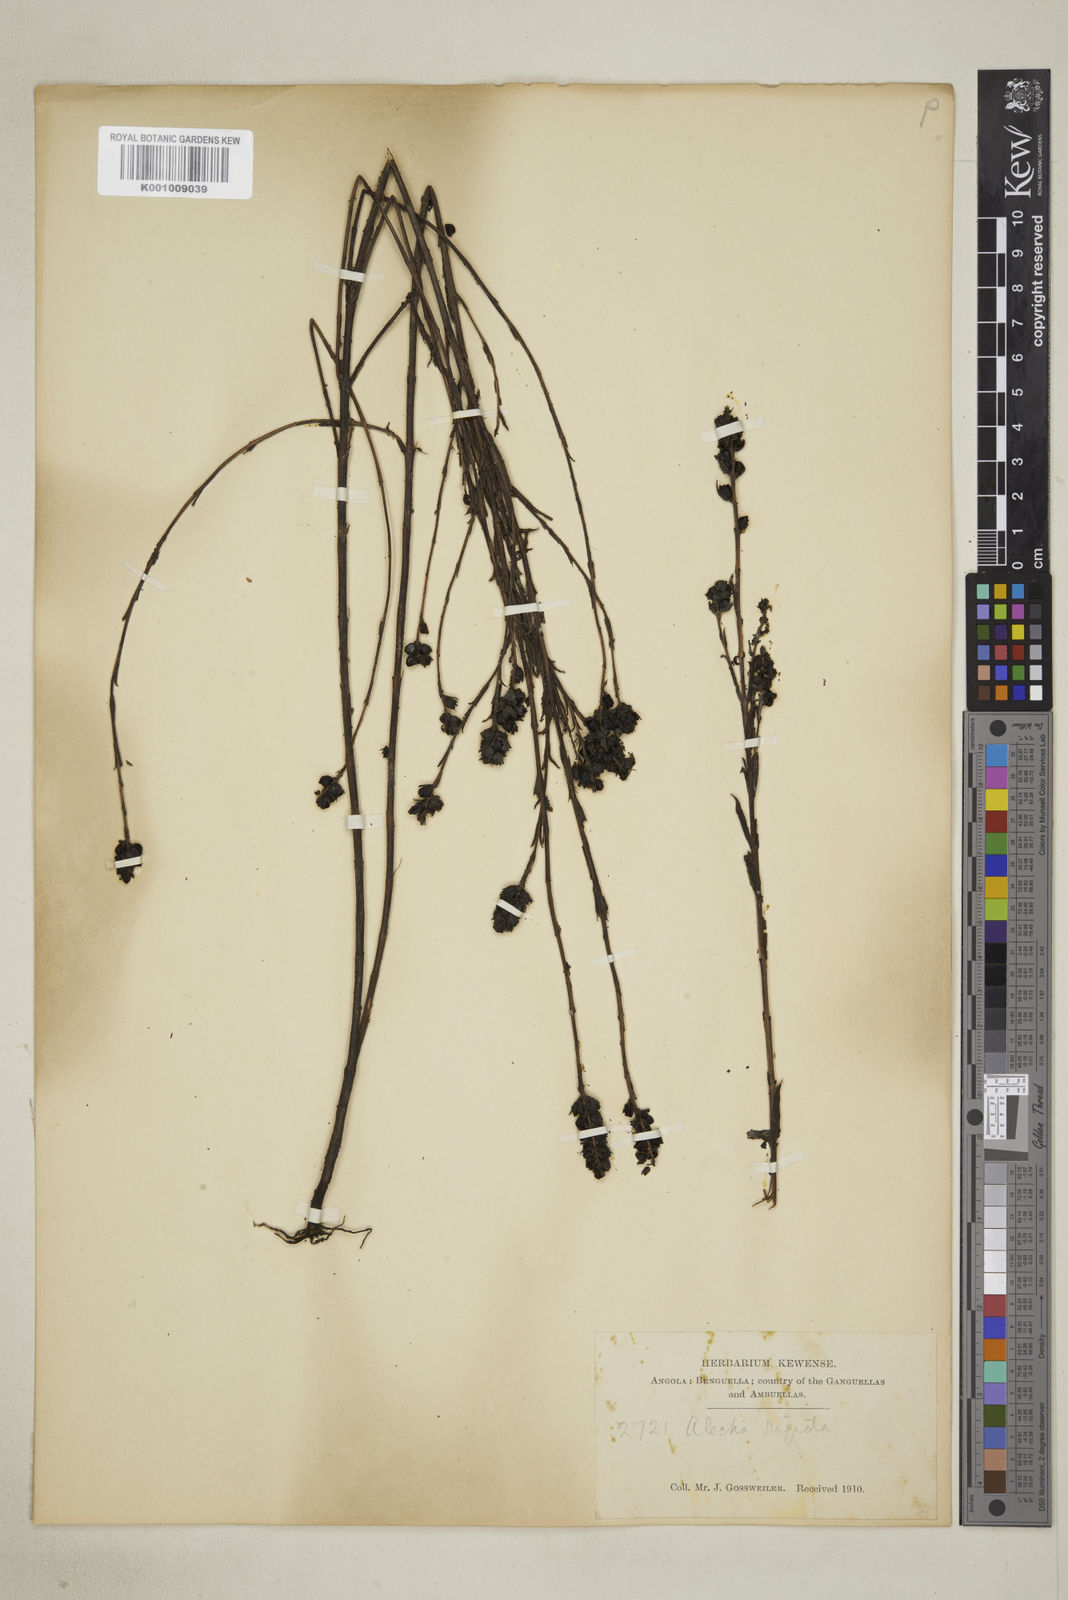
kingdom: Plantae
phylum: Tracheophyta
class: Magnoliopsida
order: Lamiales
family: Orobanchaceae
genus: Alectra
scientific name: Alectra rigida
